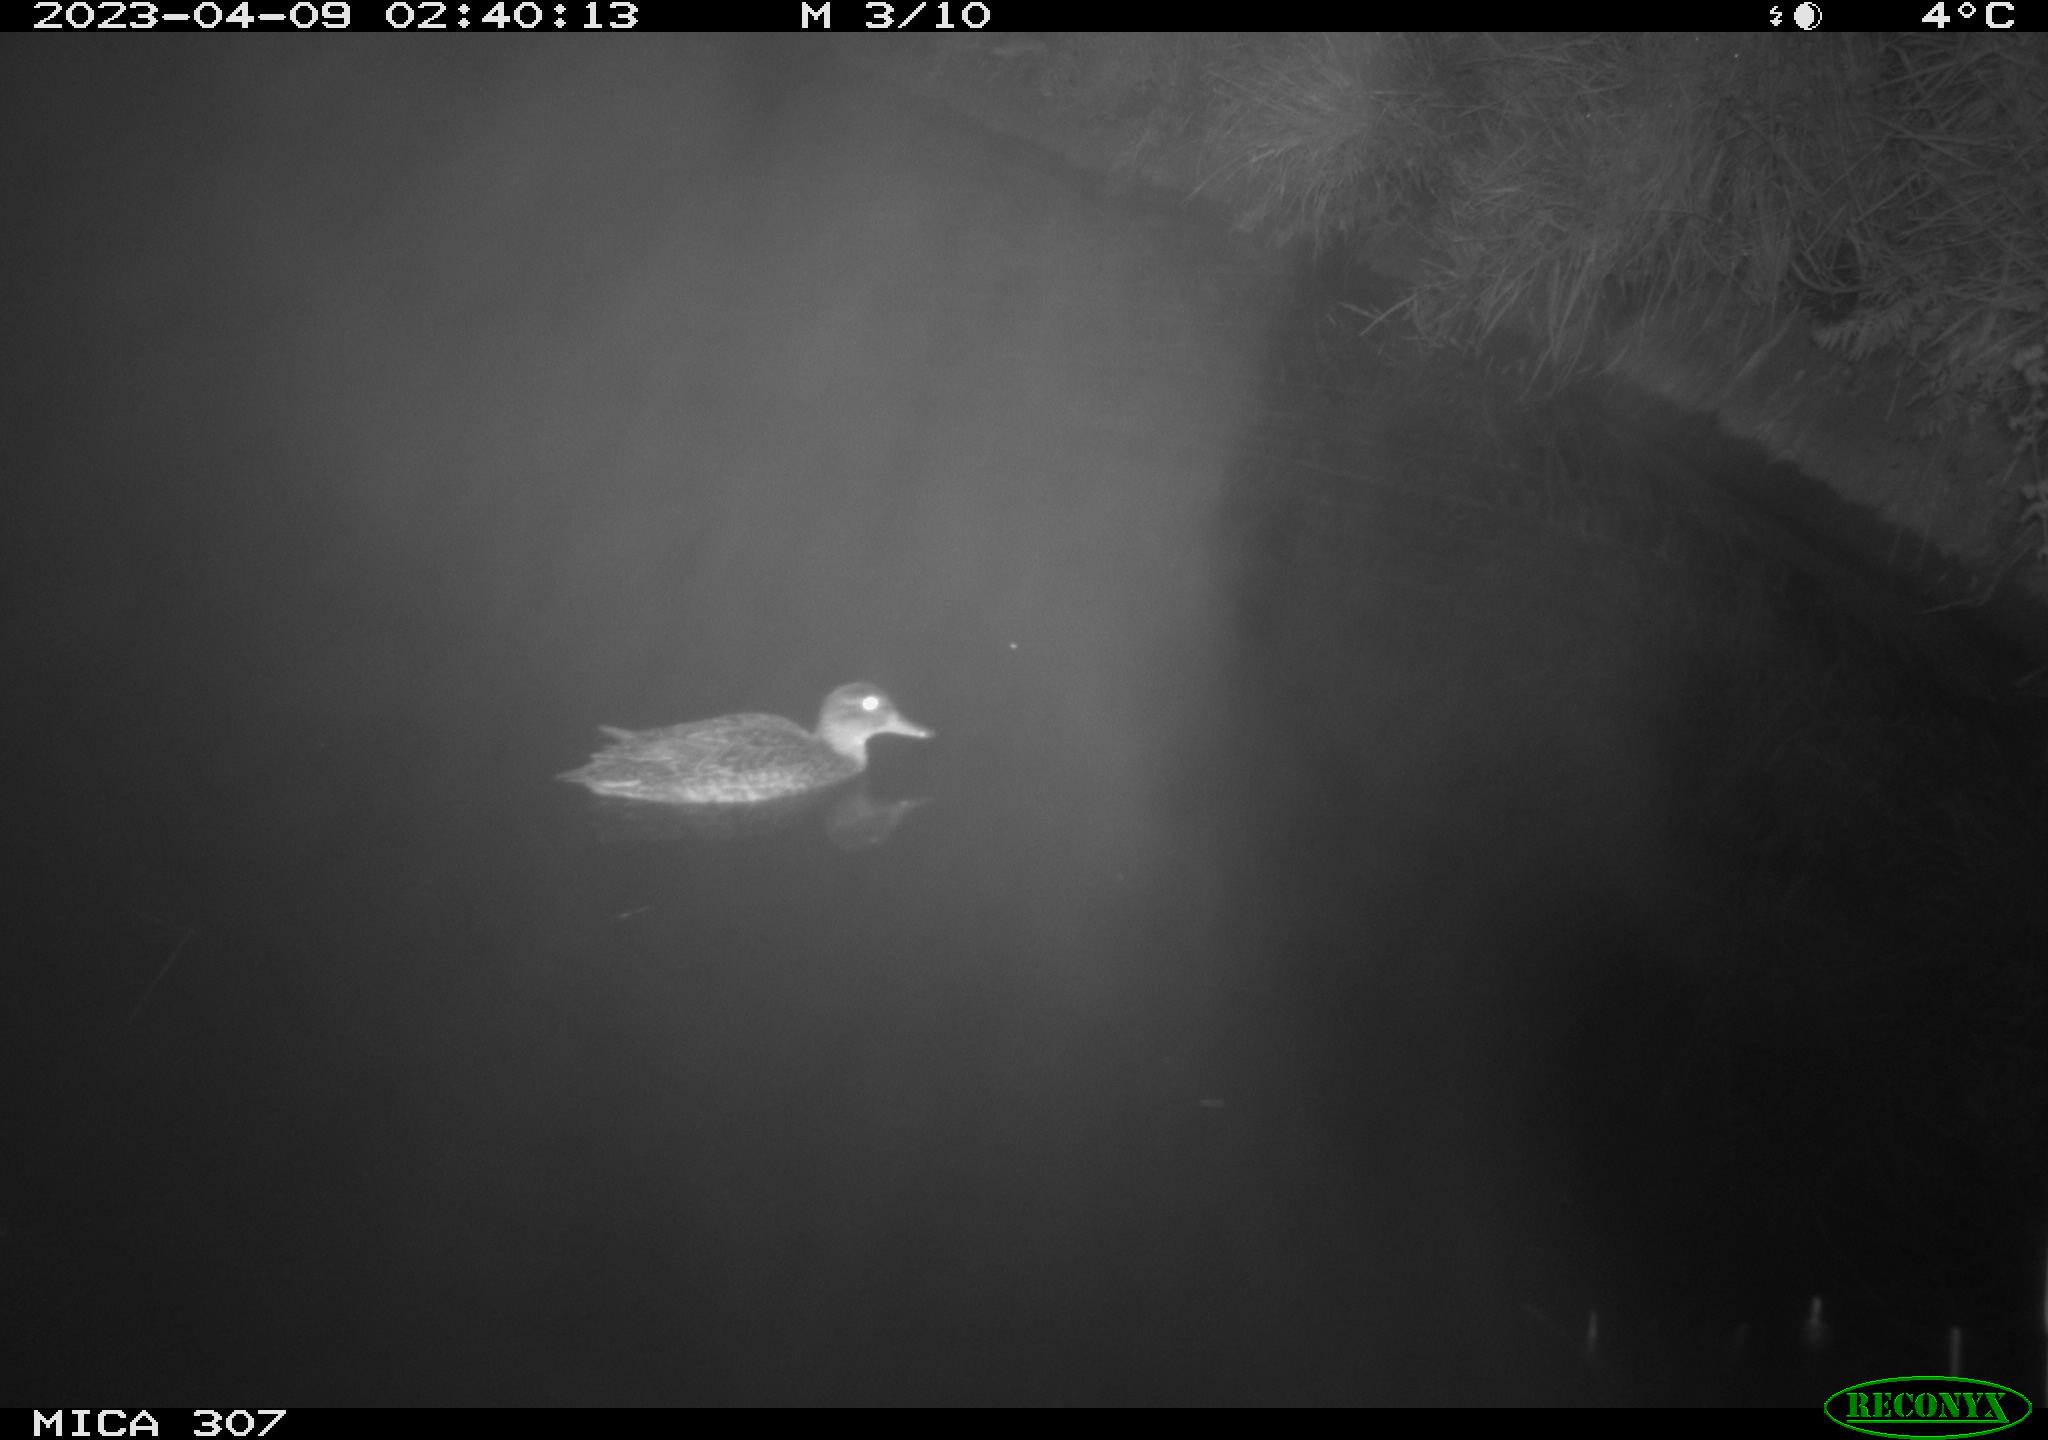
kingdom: Animalia
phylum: Chordata
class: Aves
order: Anseriformes
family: Anatidae
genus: Anas
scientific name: Anas
